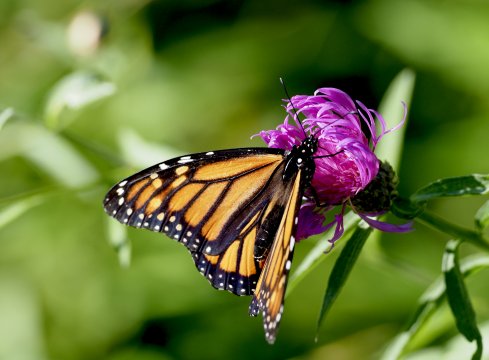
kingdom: Animalia
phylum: Arthropoda
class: Insecta
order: Lepidoptera
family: Nymphalidae
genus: Danaus
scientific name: Danaus plexippus
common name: Monarch
